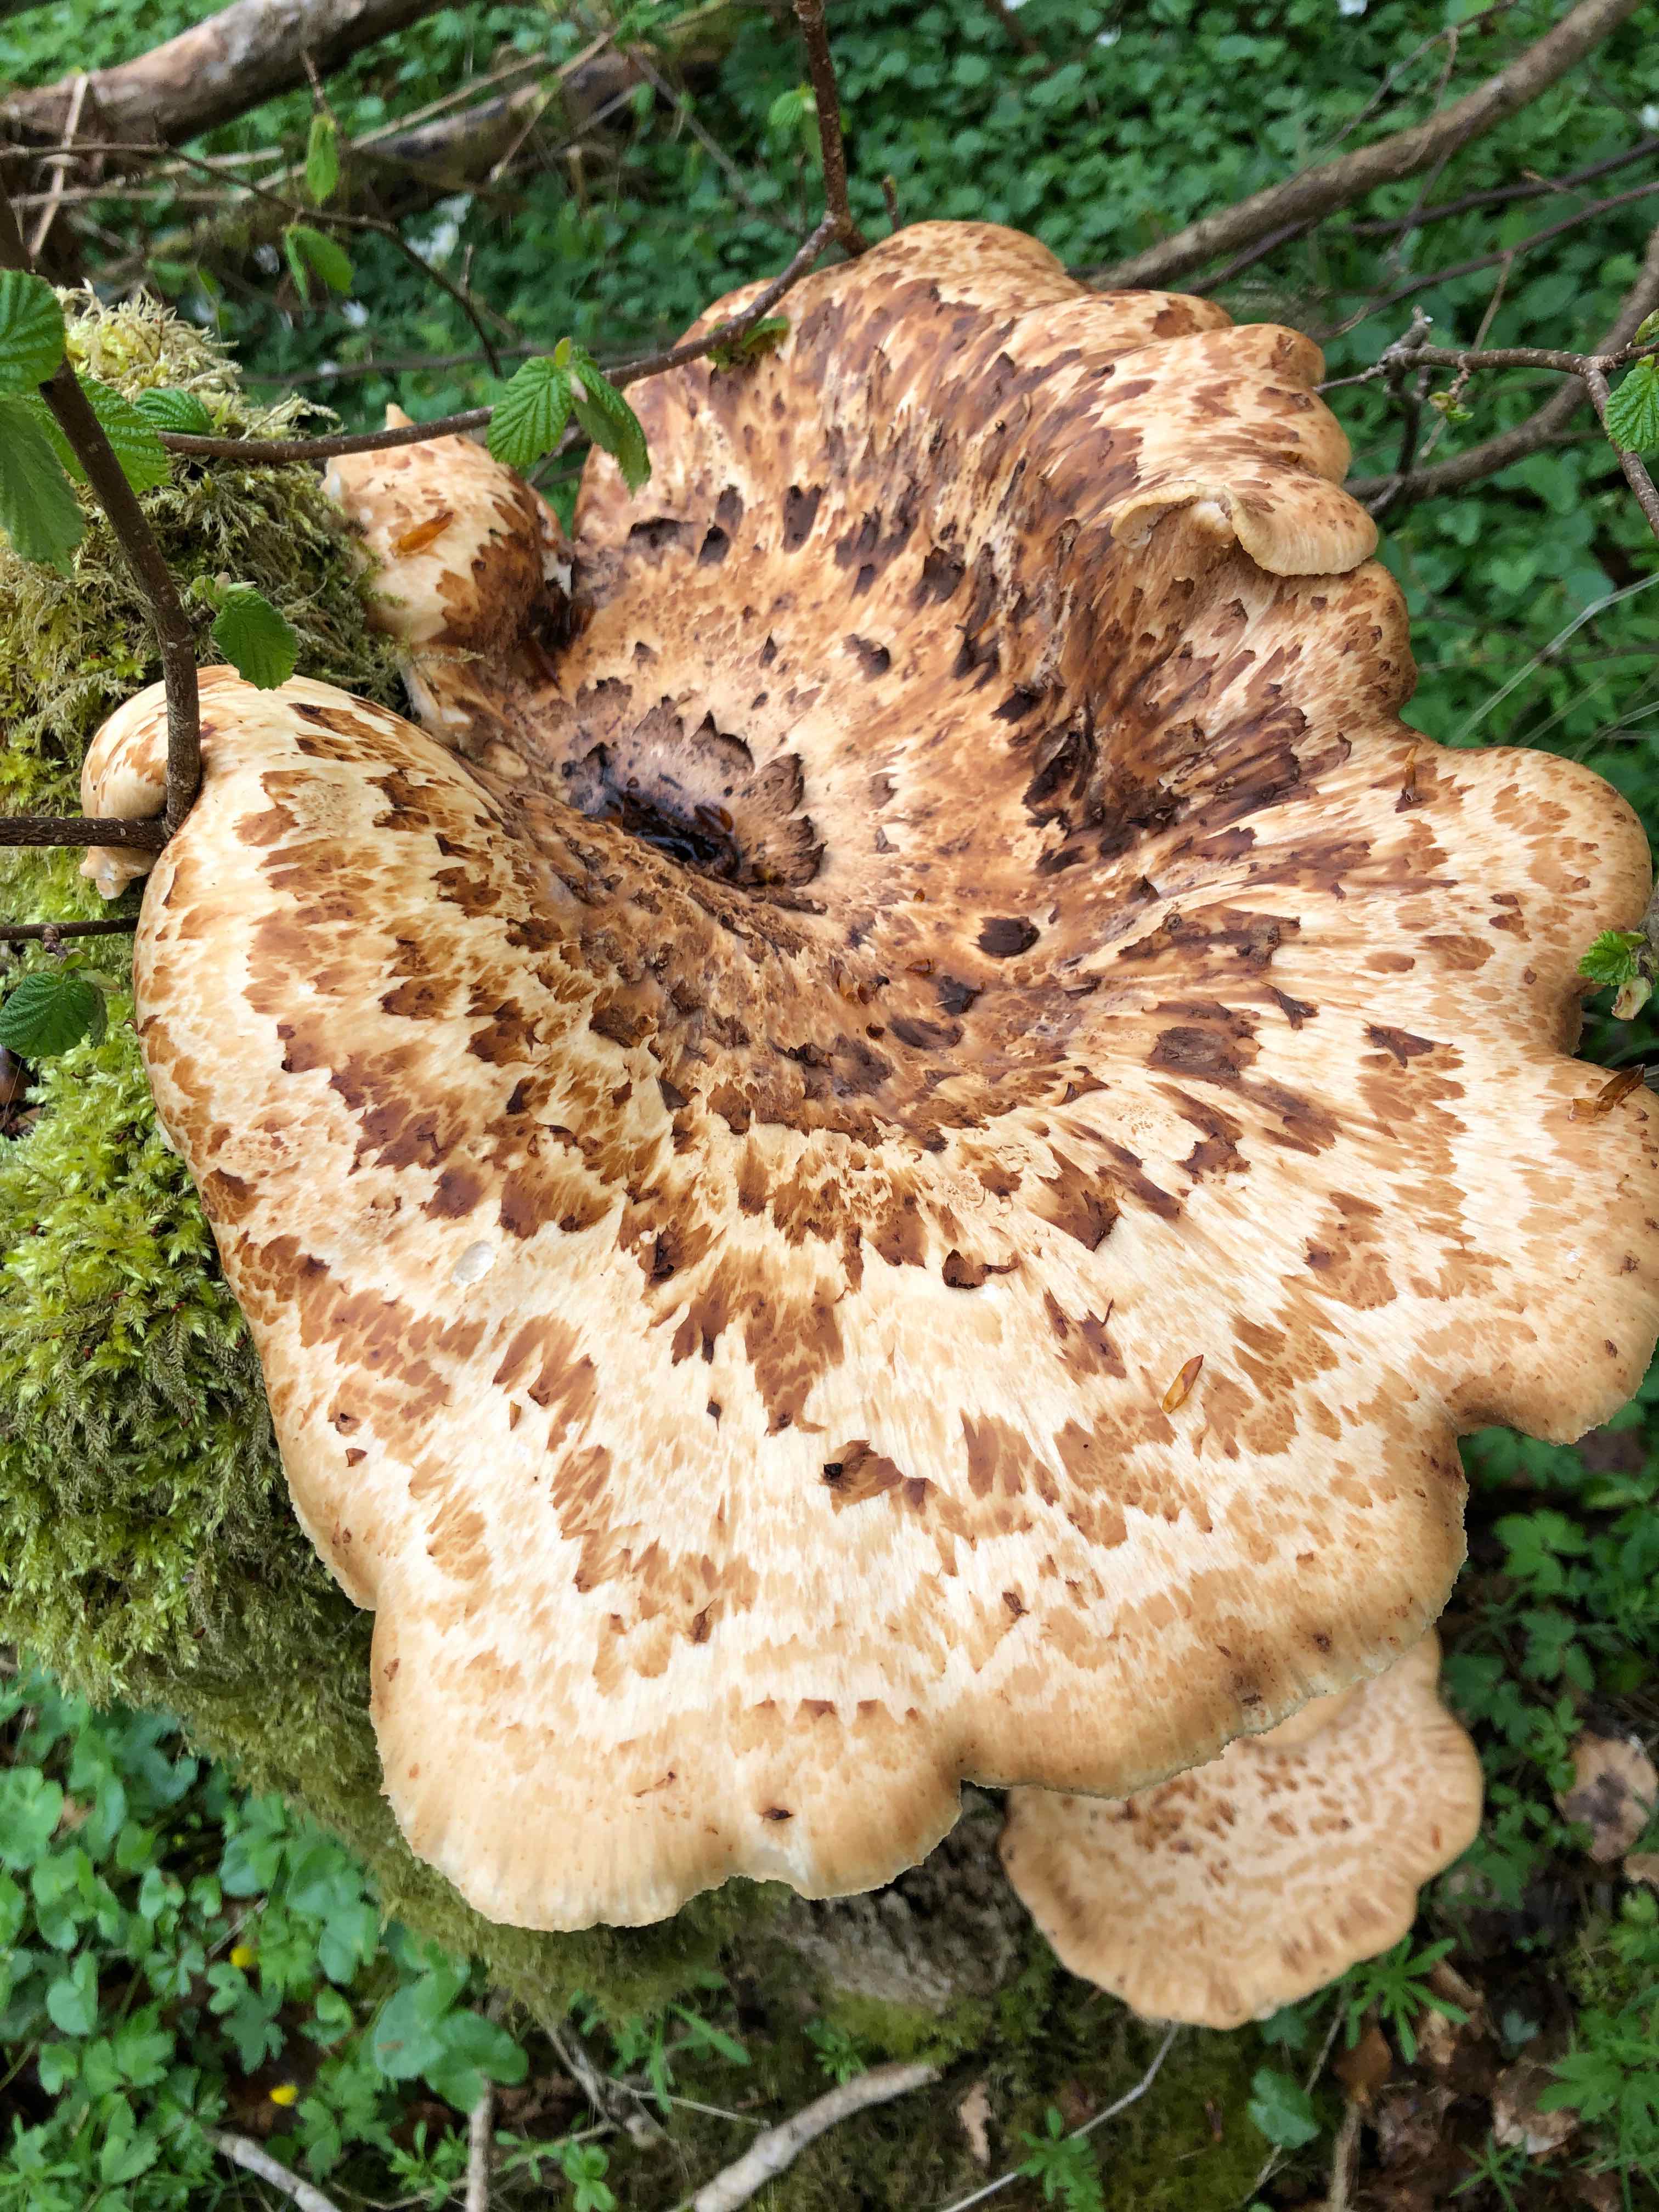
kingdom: Fungi
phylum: Basidiomycota
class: Agaricomycetes
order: Polyporales
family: Polyporaceae
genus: Cerioporus
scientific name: Cerioporus squamosus
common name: skællet stilkporesvamp
